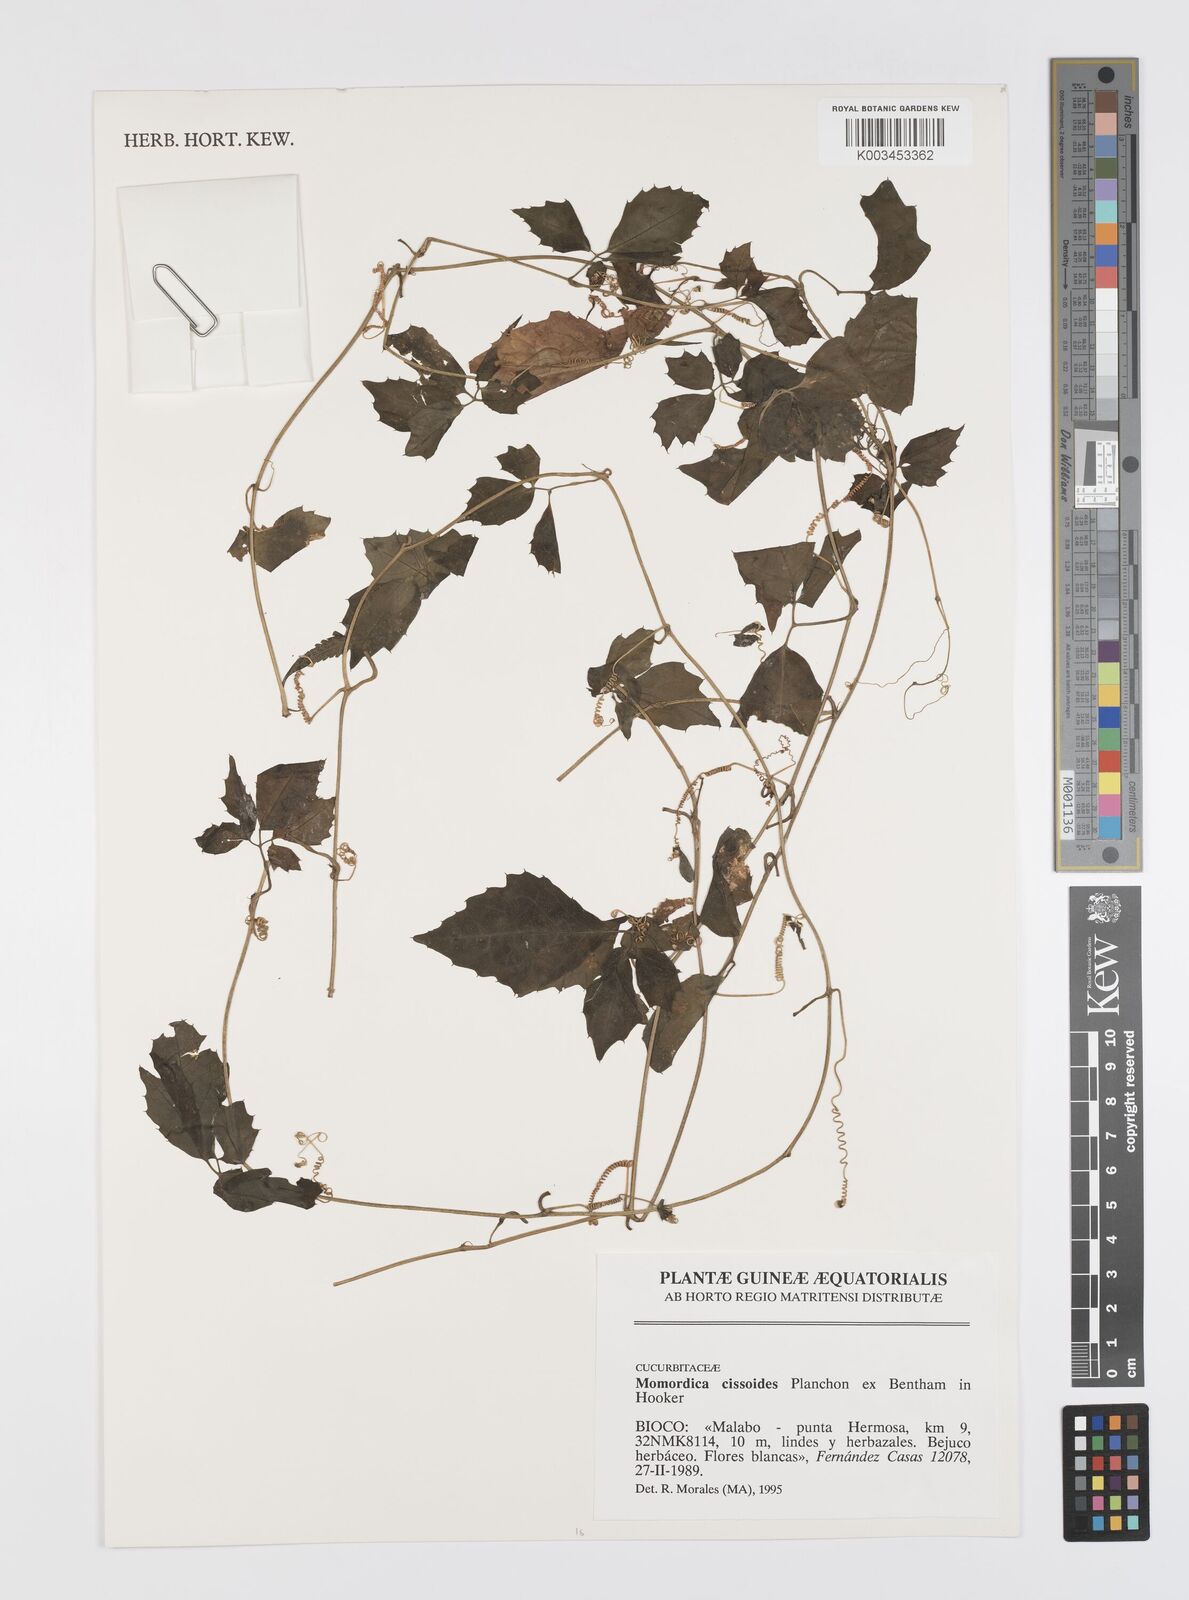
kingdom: Plantae
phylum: Tracheophyta
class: Magnoliopsida
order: Cucurbitales
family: Cucurbitaceae
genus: Momordica
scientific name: Momordica cissoides
